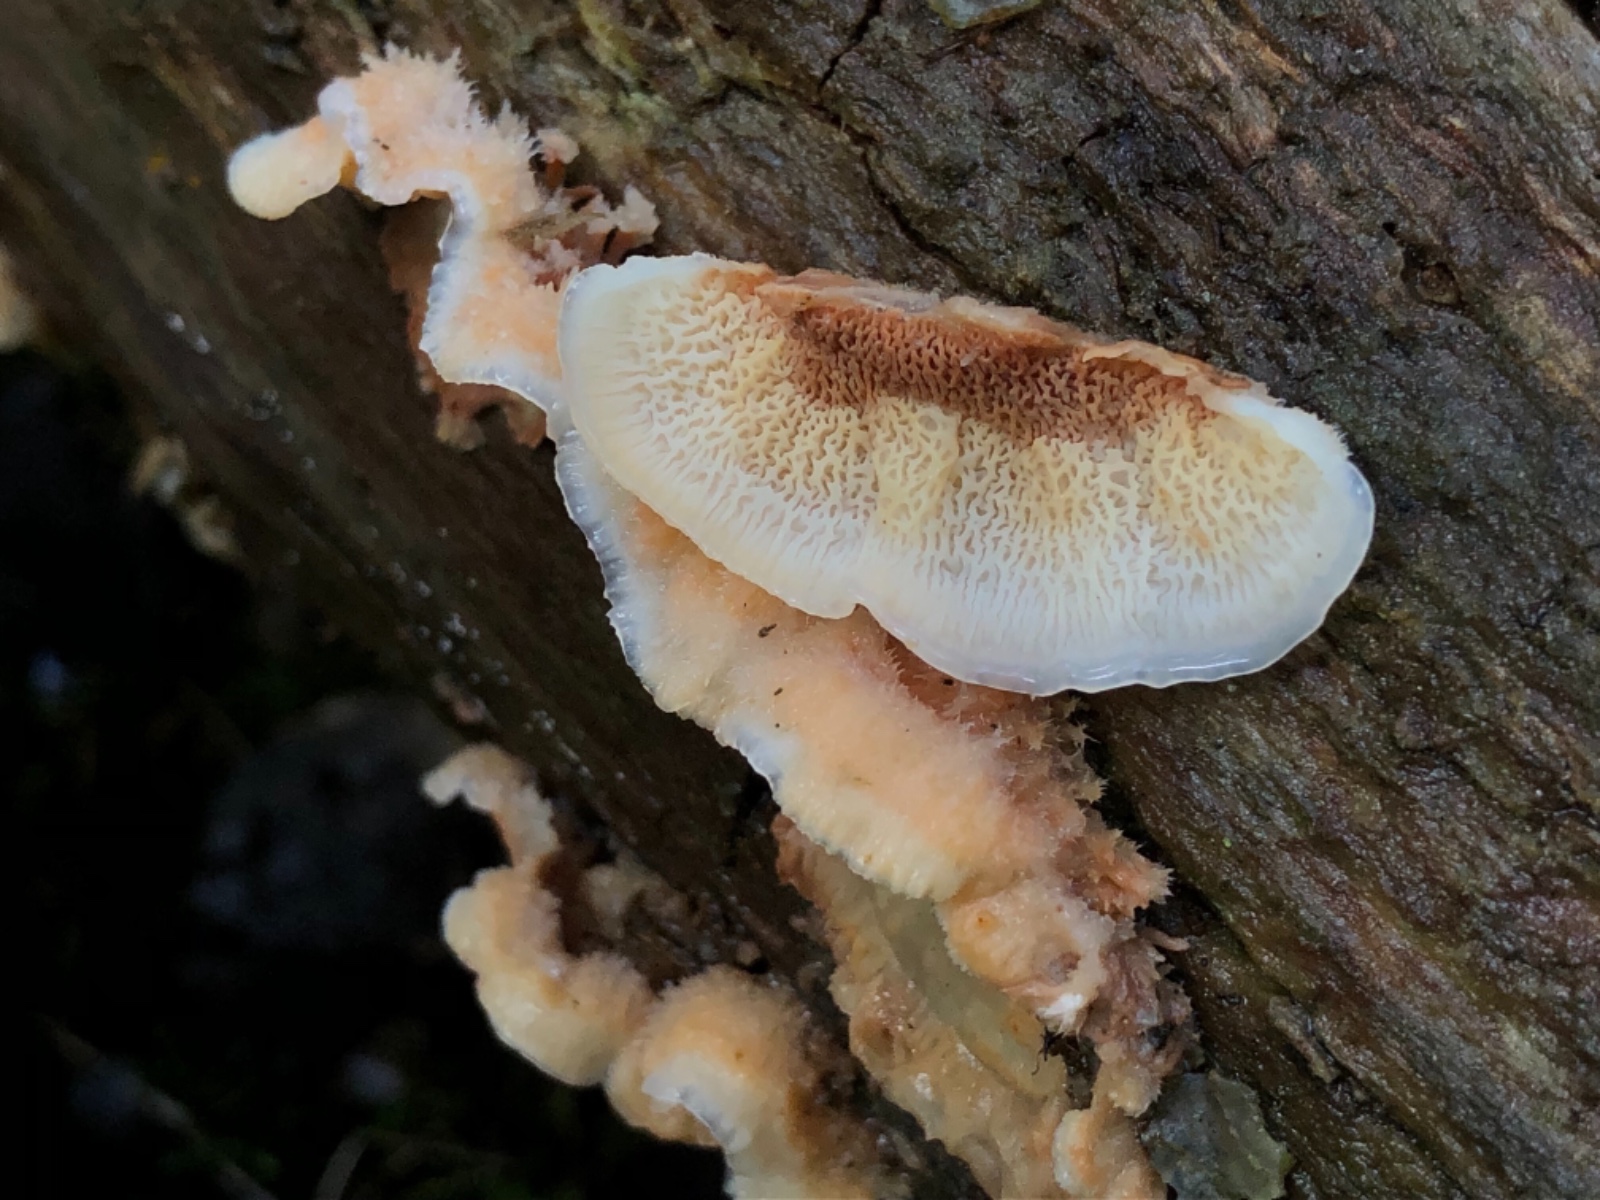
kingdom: Fungi
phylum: Basidiomycota
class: Agaricomycetes
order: Polyporales
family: Meruliaceae
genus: Phlebia
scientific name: Phlebia tremellosa
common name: bævrende åresvamp
